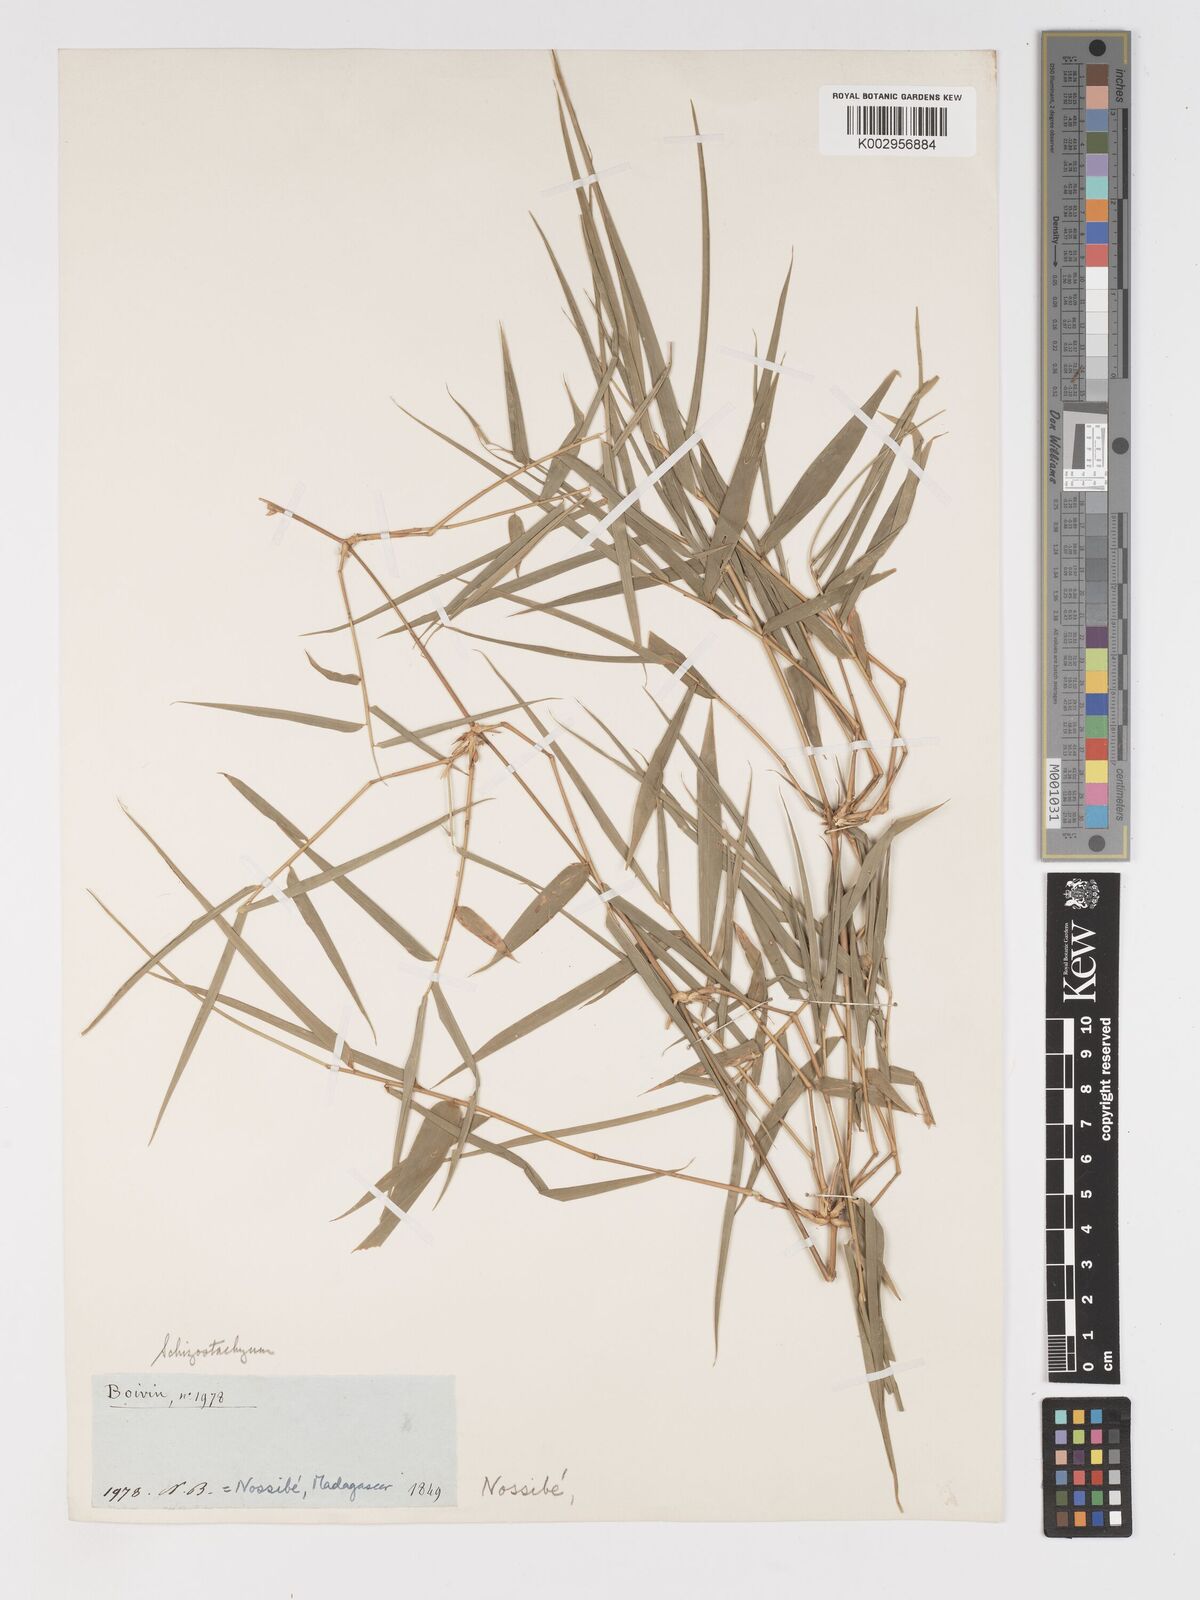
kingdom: Plantae
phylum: Tracheophyta
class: Liliopsida
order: Poales
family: Poaceae
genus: Sirochloa
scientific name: Sirochloa parvifolia
